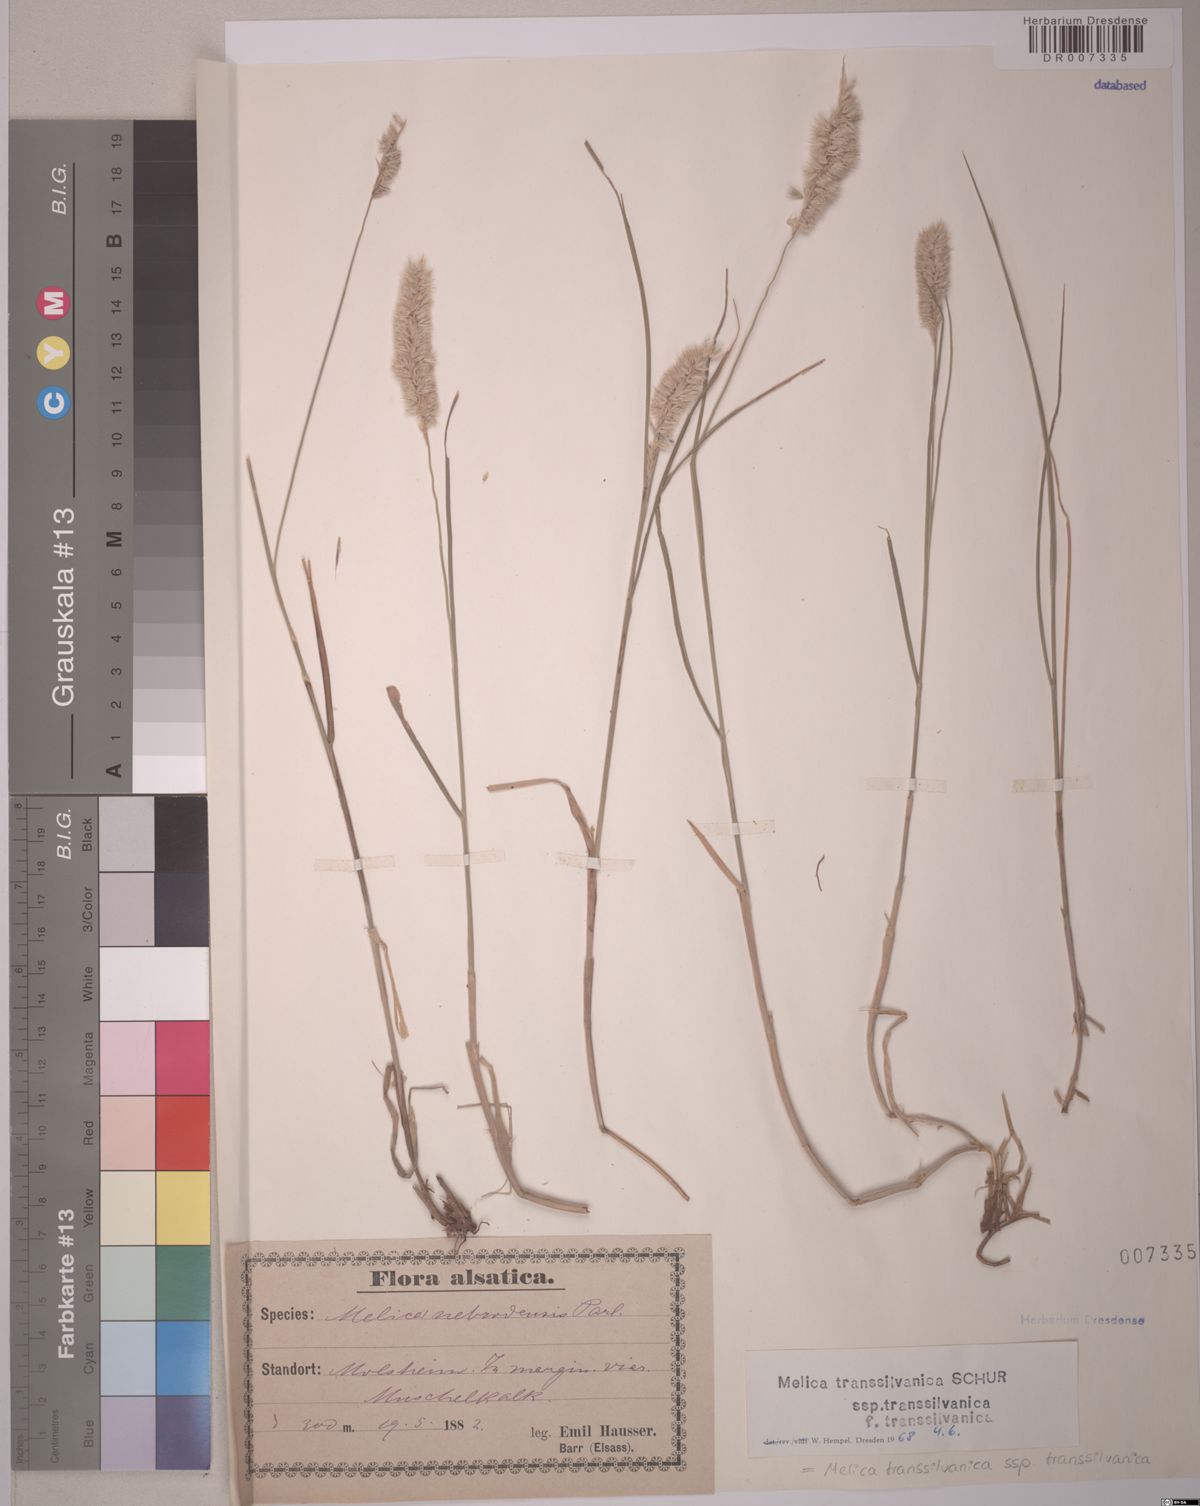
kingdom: Plantae
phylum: Tracheophyta
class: Liliopsida
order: Poales
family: Poaceae
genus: Melica
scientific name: Melica transsilvanica
